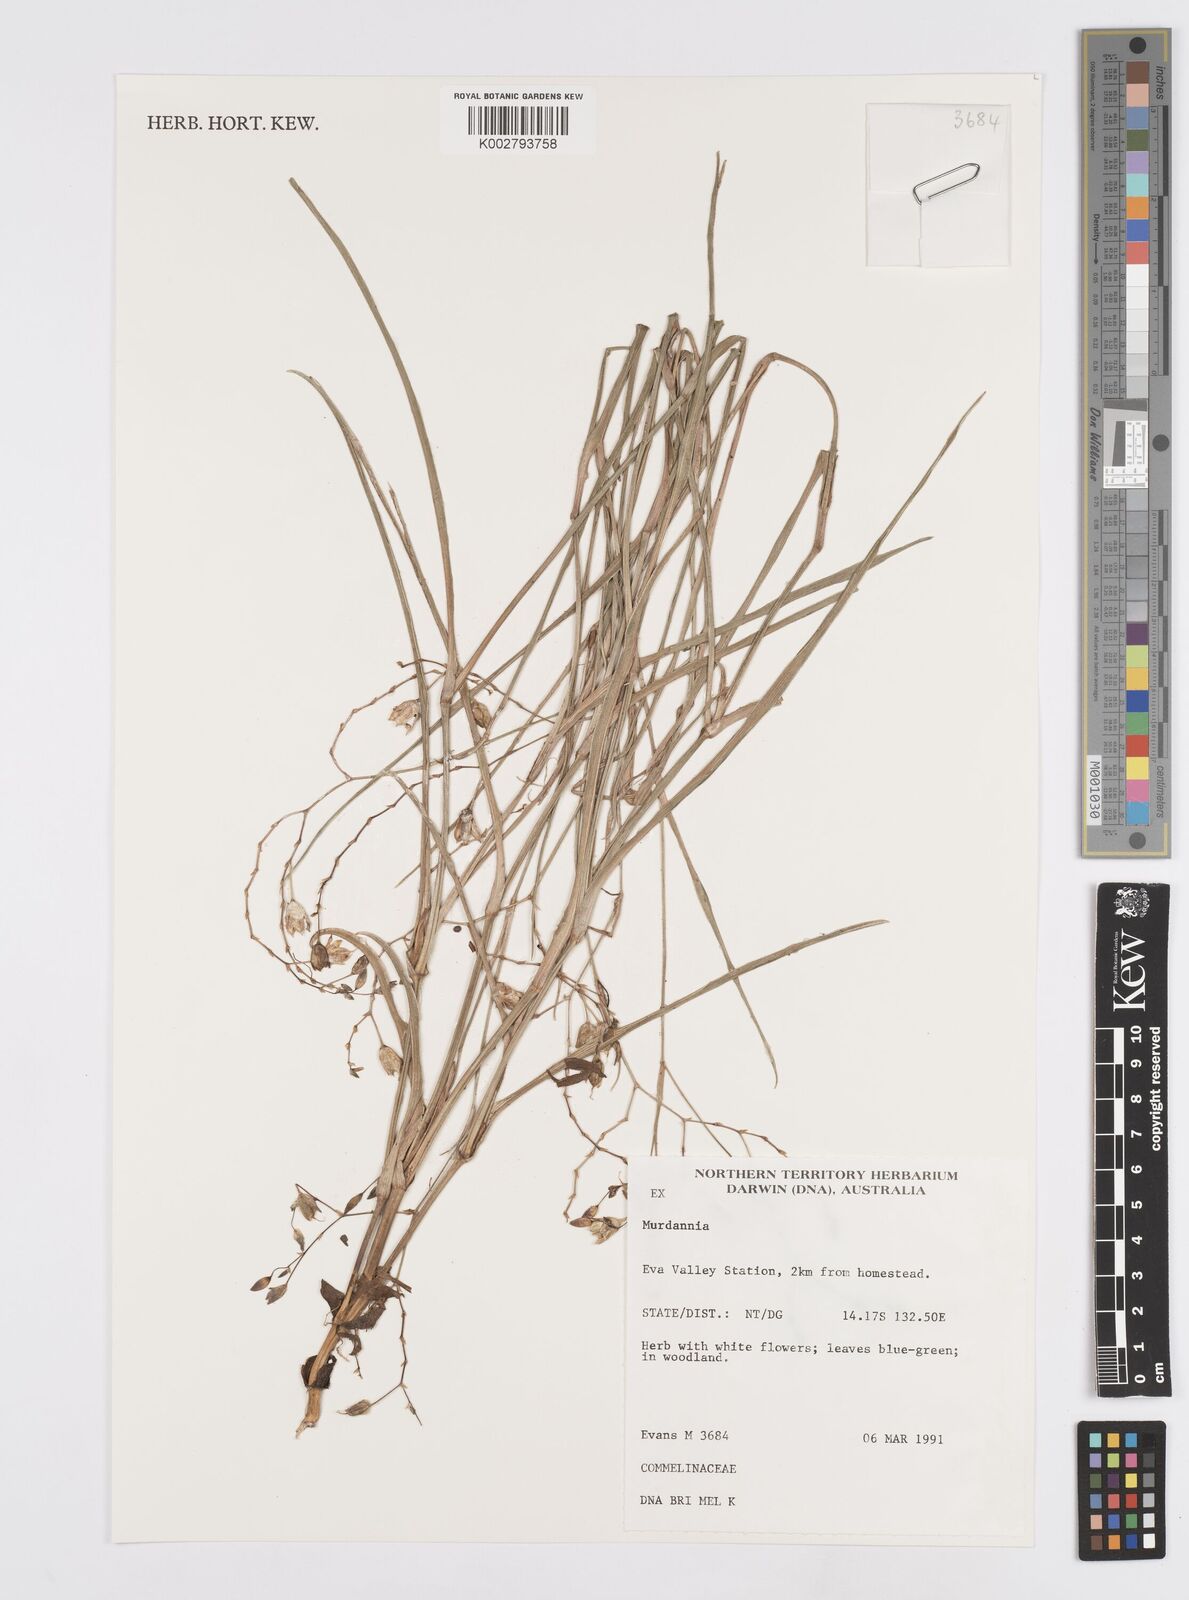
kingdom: Plantae
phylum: Tracheophyta
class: Liliopsida
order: Commelinales
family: Commelinaceae
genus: Murdannia
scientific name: Murdannia
